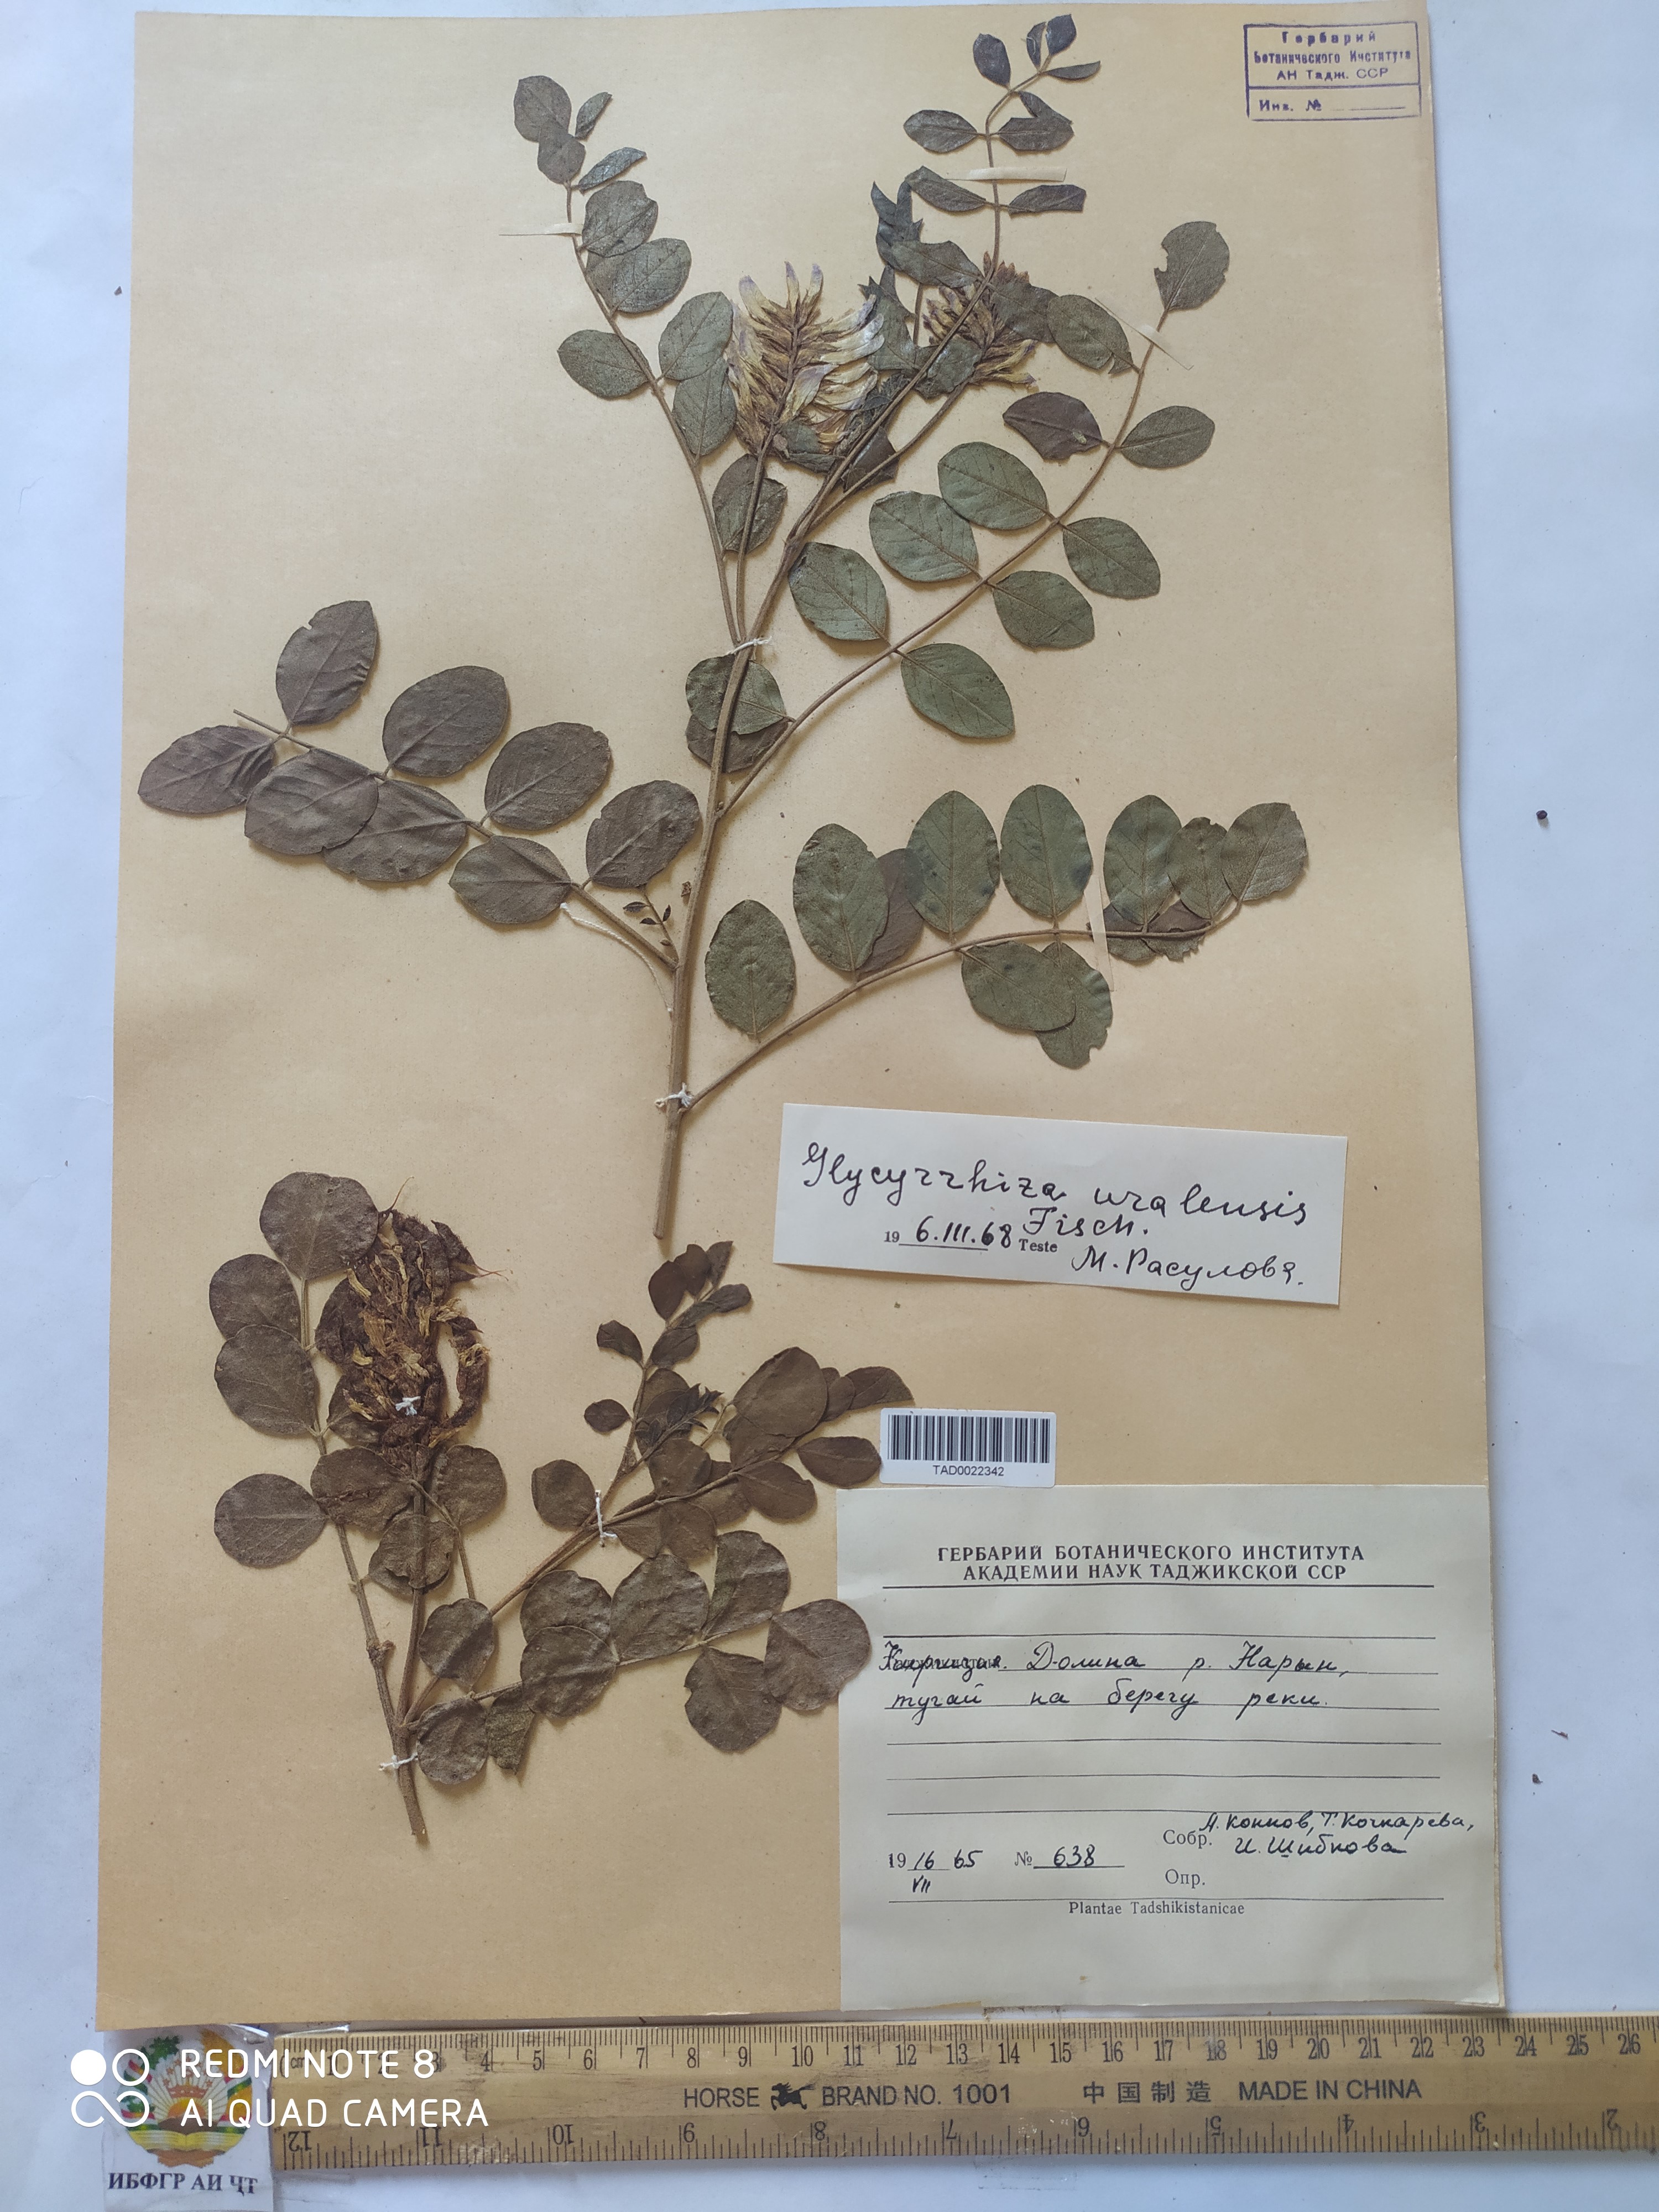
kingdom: Plantae
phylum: Tracheophyta
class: Magnoliopsida
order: Fabales
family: Fabaceae
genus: Glycyrrhiza
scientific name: Glycyrrhiza uralensis
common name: Chinese licorice
